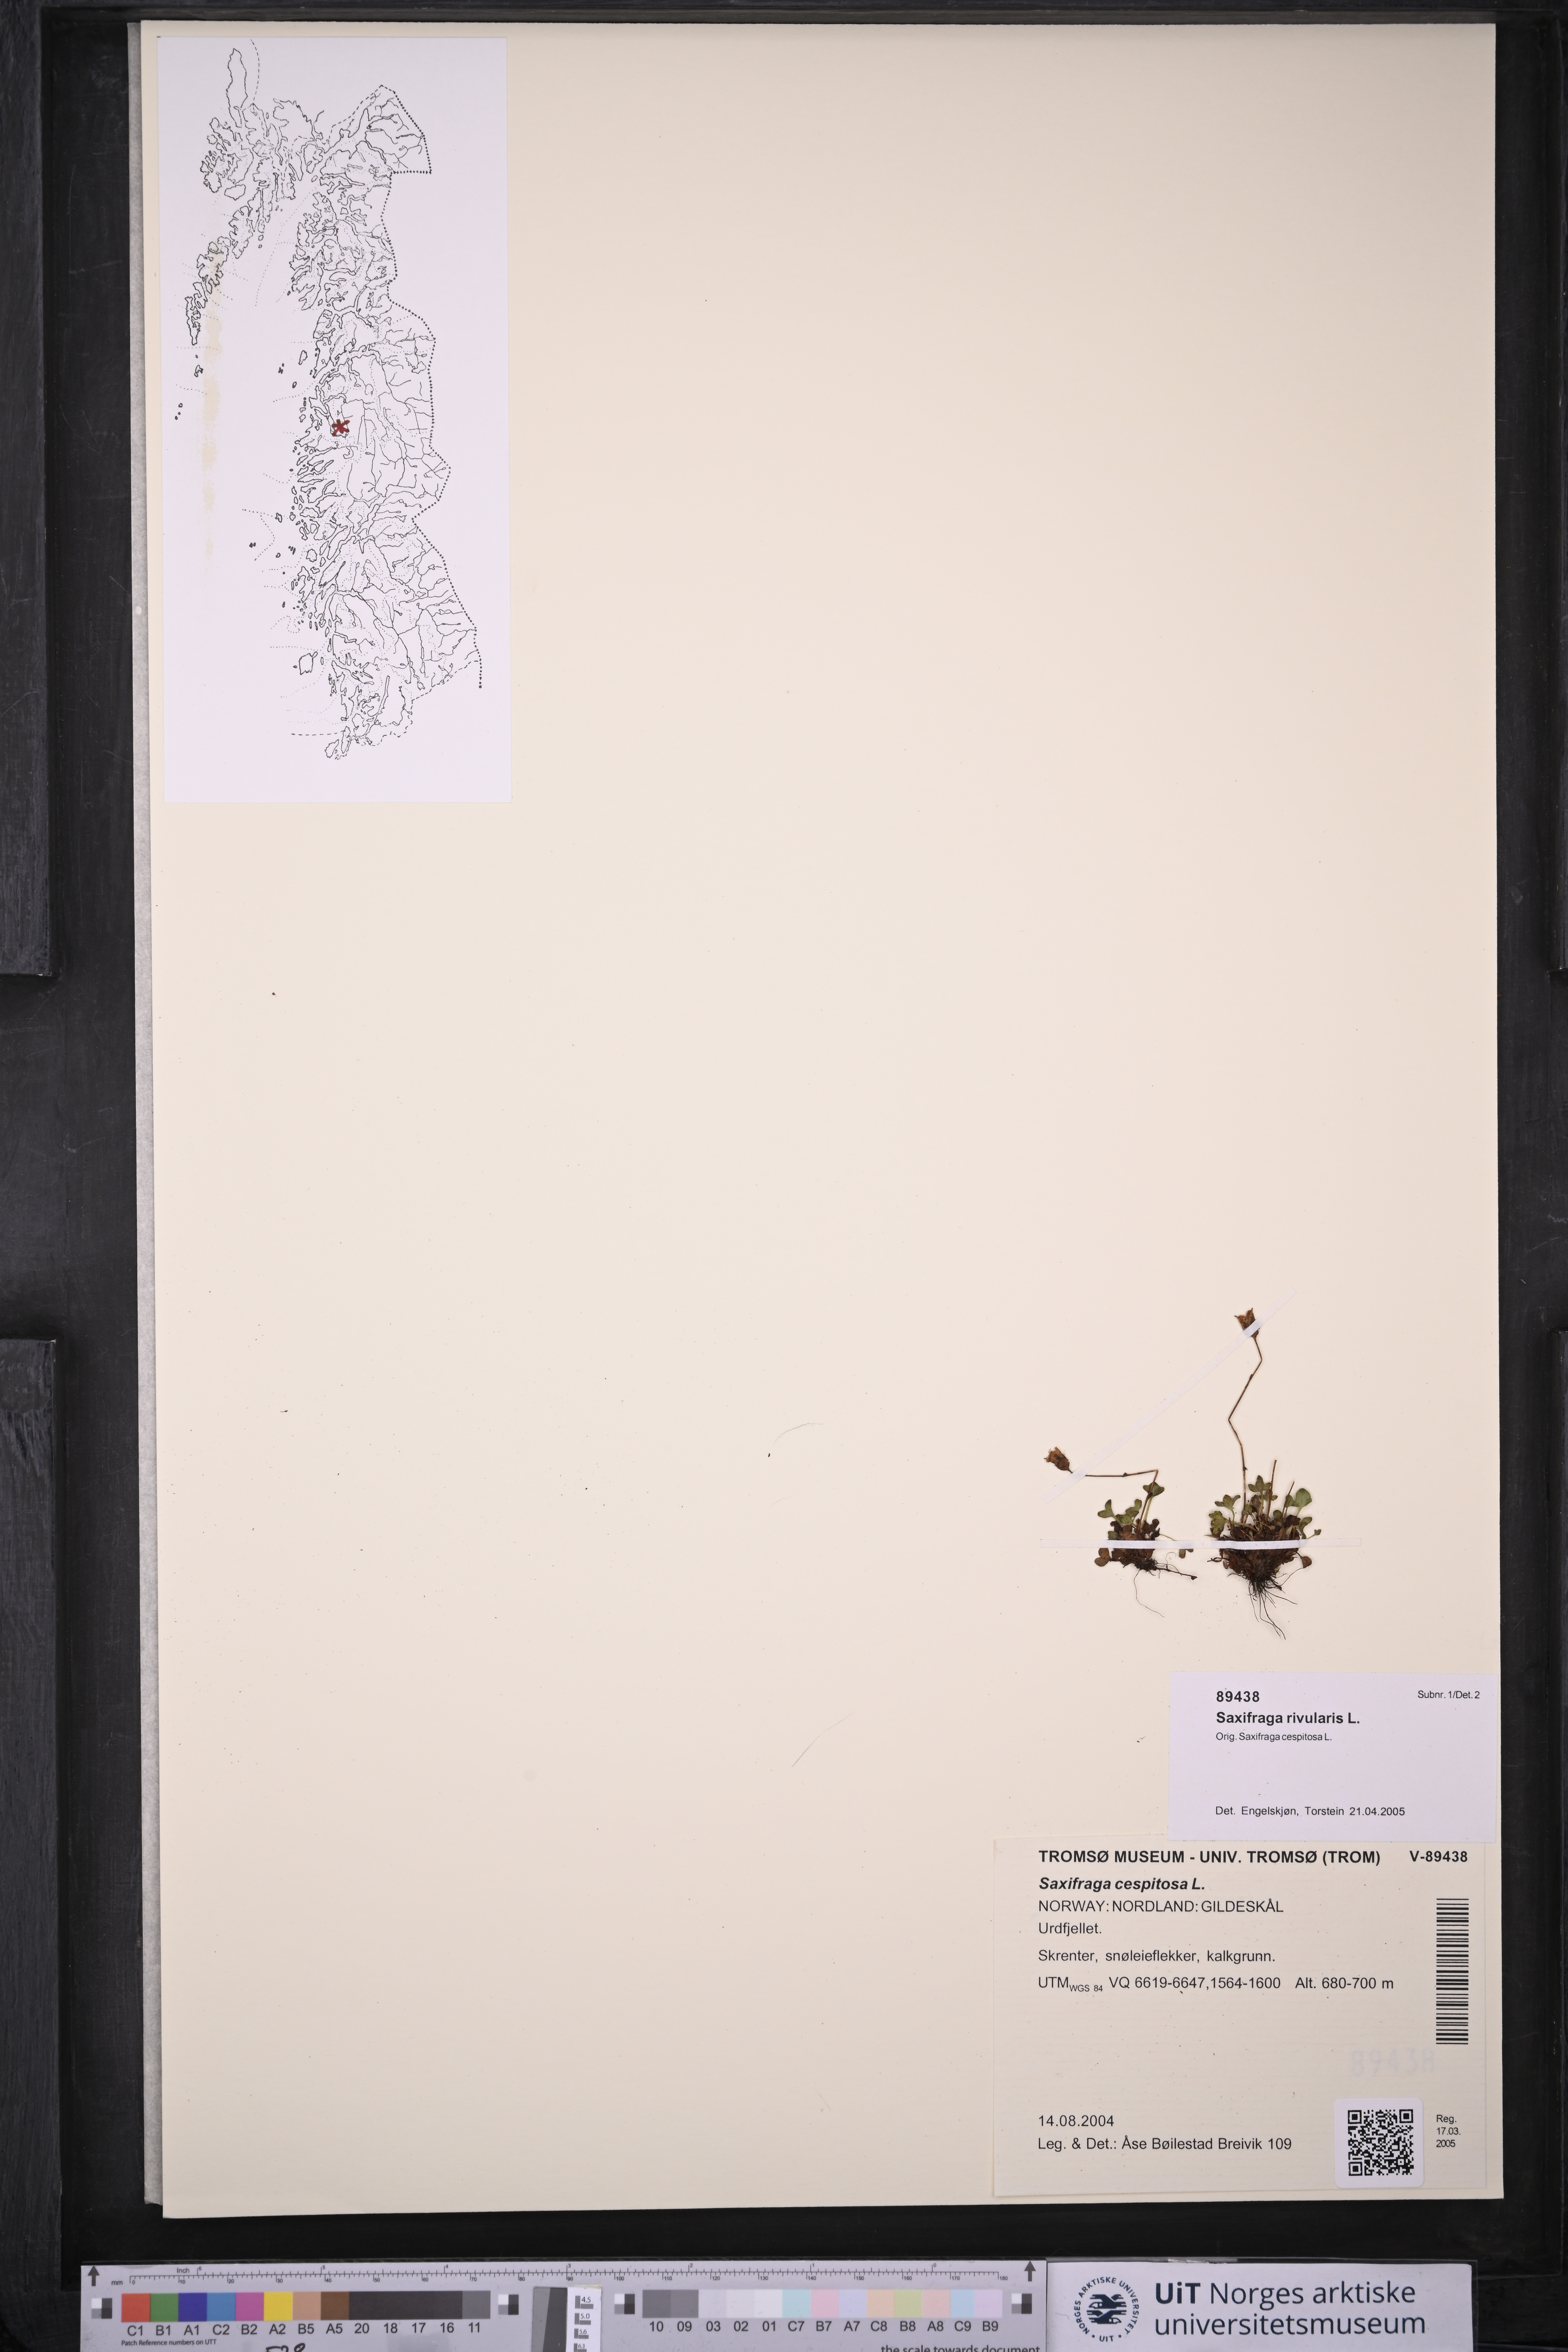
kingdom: Plantae
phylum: Tracheophyta
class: Magnoliopsida
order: Saxifragales
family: Saxifragaceae
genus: Saxifraga
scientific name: Saxifraga rivularis
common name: Highland saxifrage
